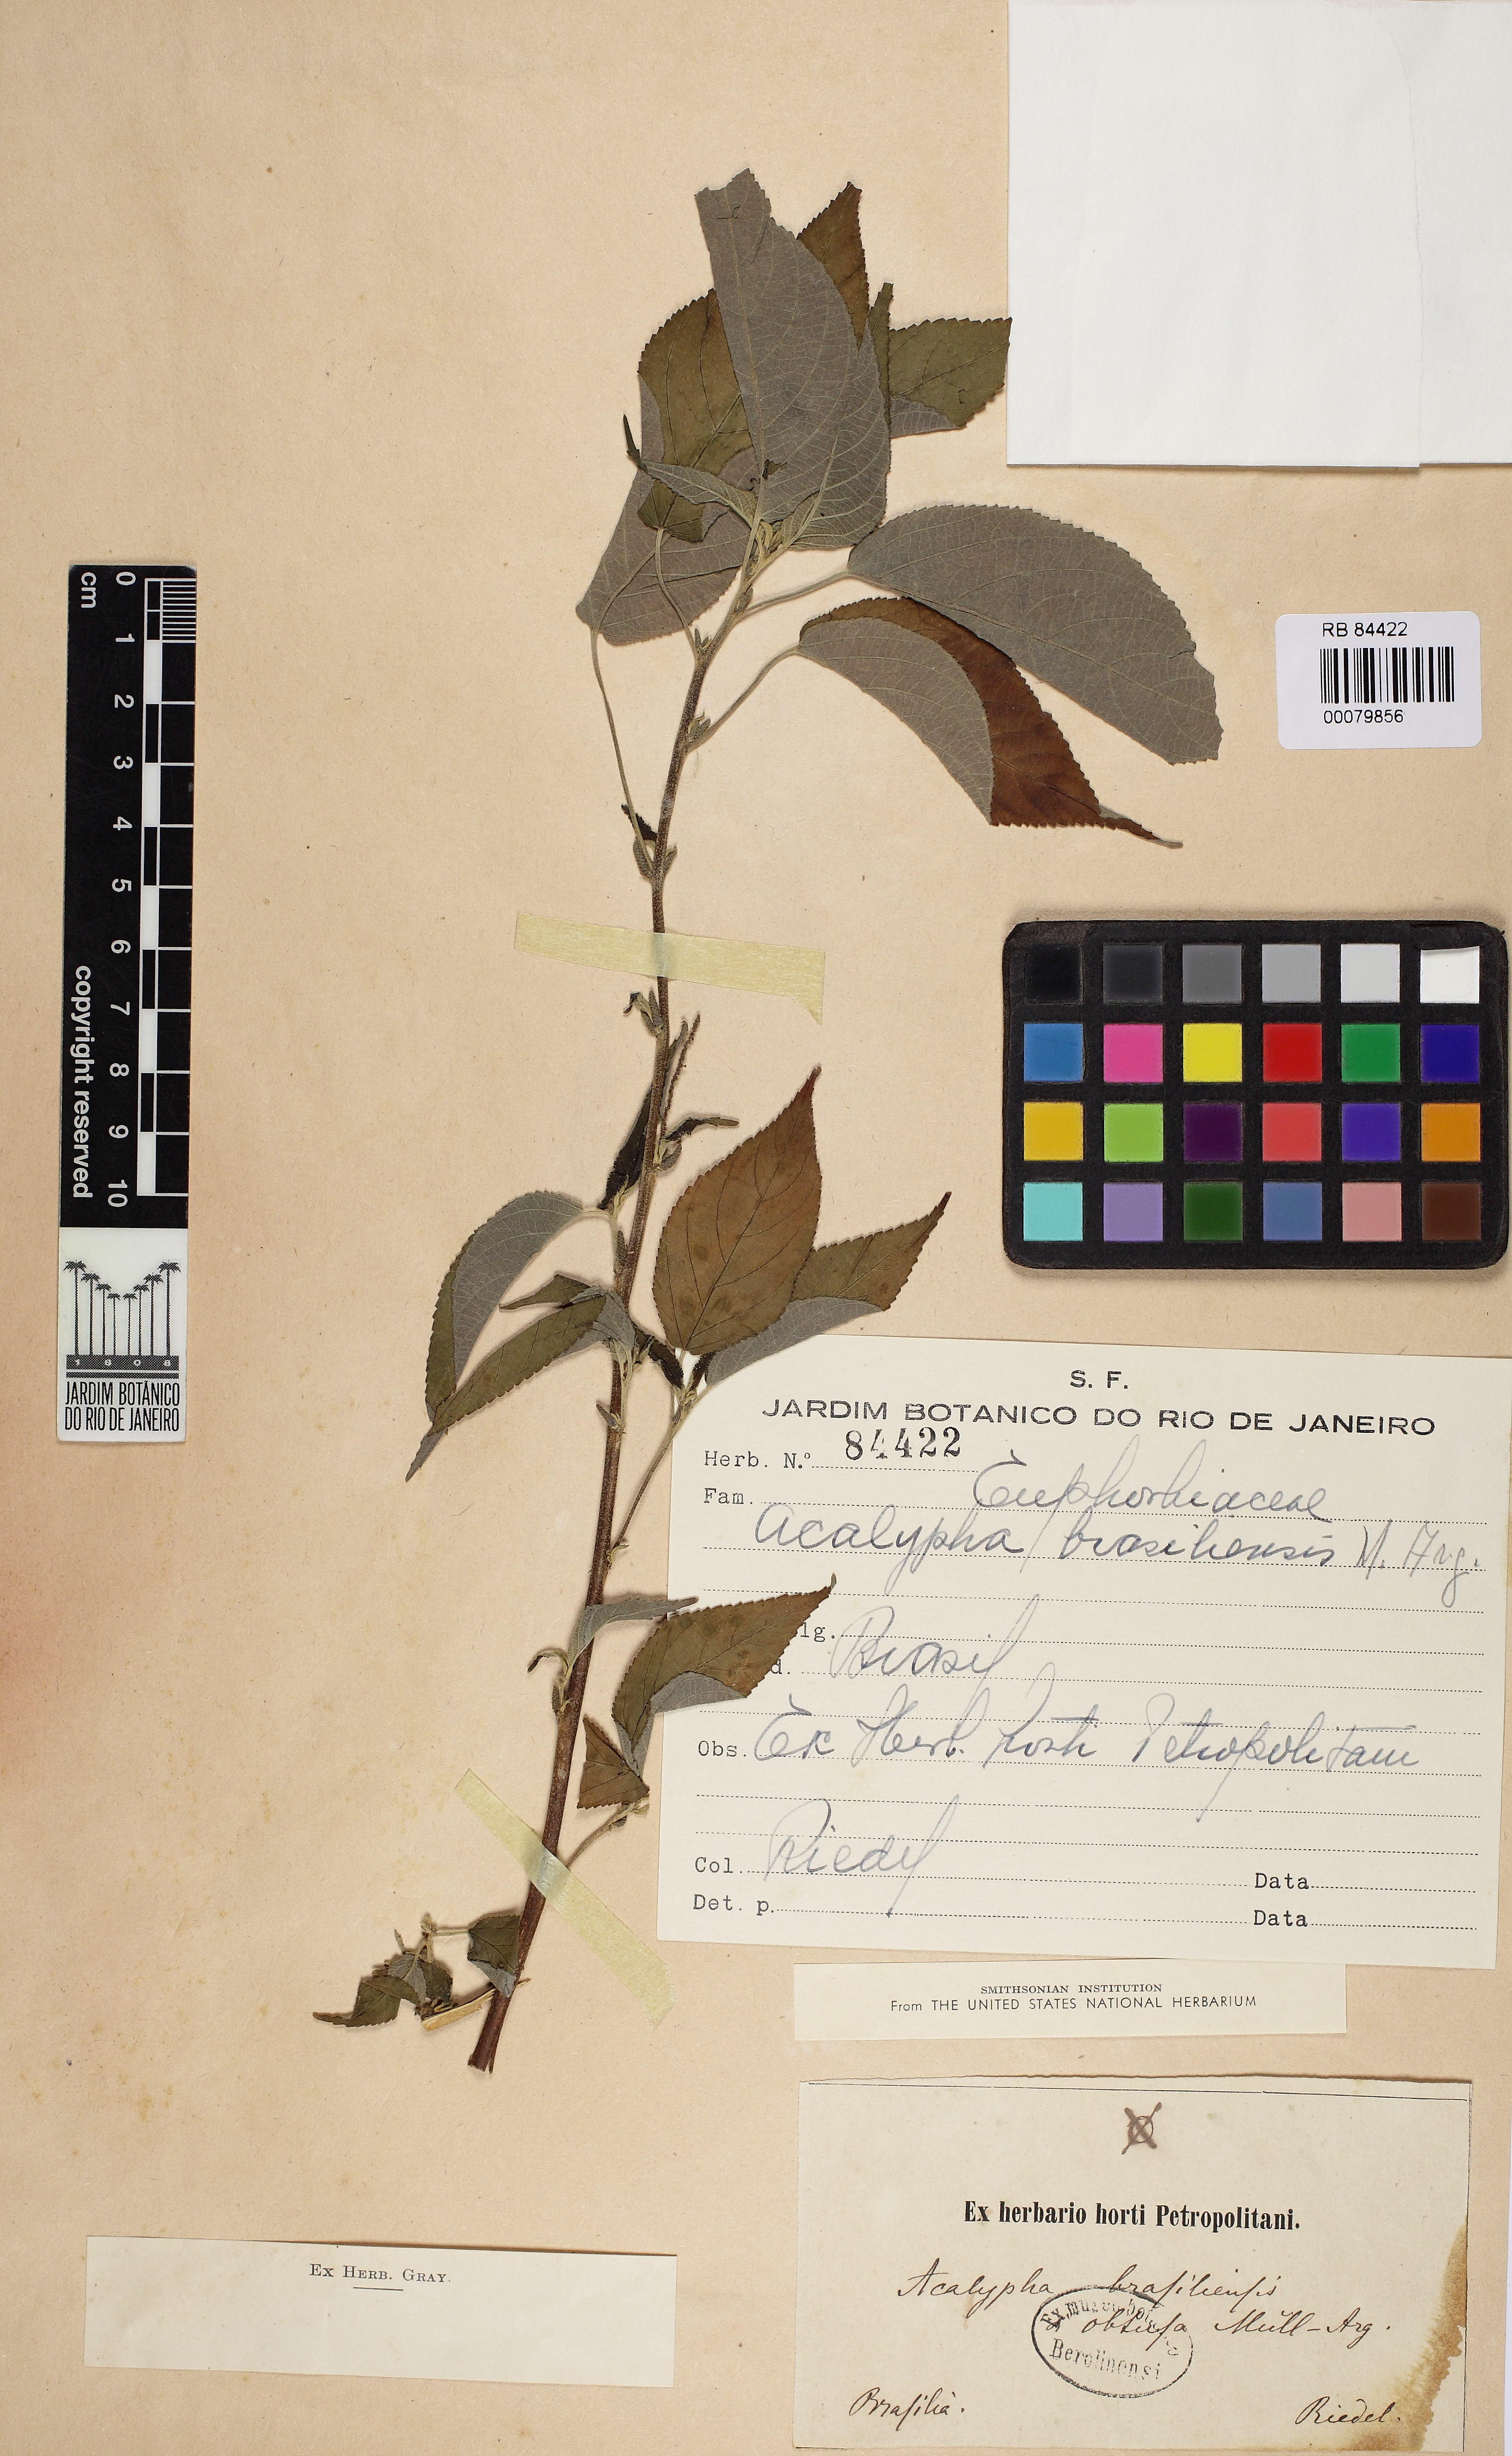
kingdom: Plantae
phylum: Tracheophyta
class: Magnoliopsida
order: Malpighiales
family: Euphorbiaceae
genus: Acalypha
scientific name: Acalypha brasiliensis
